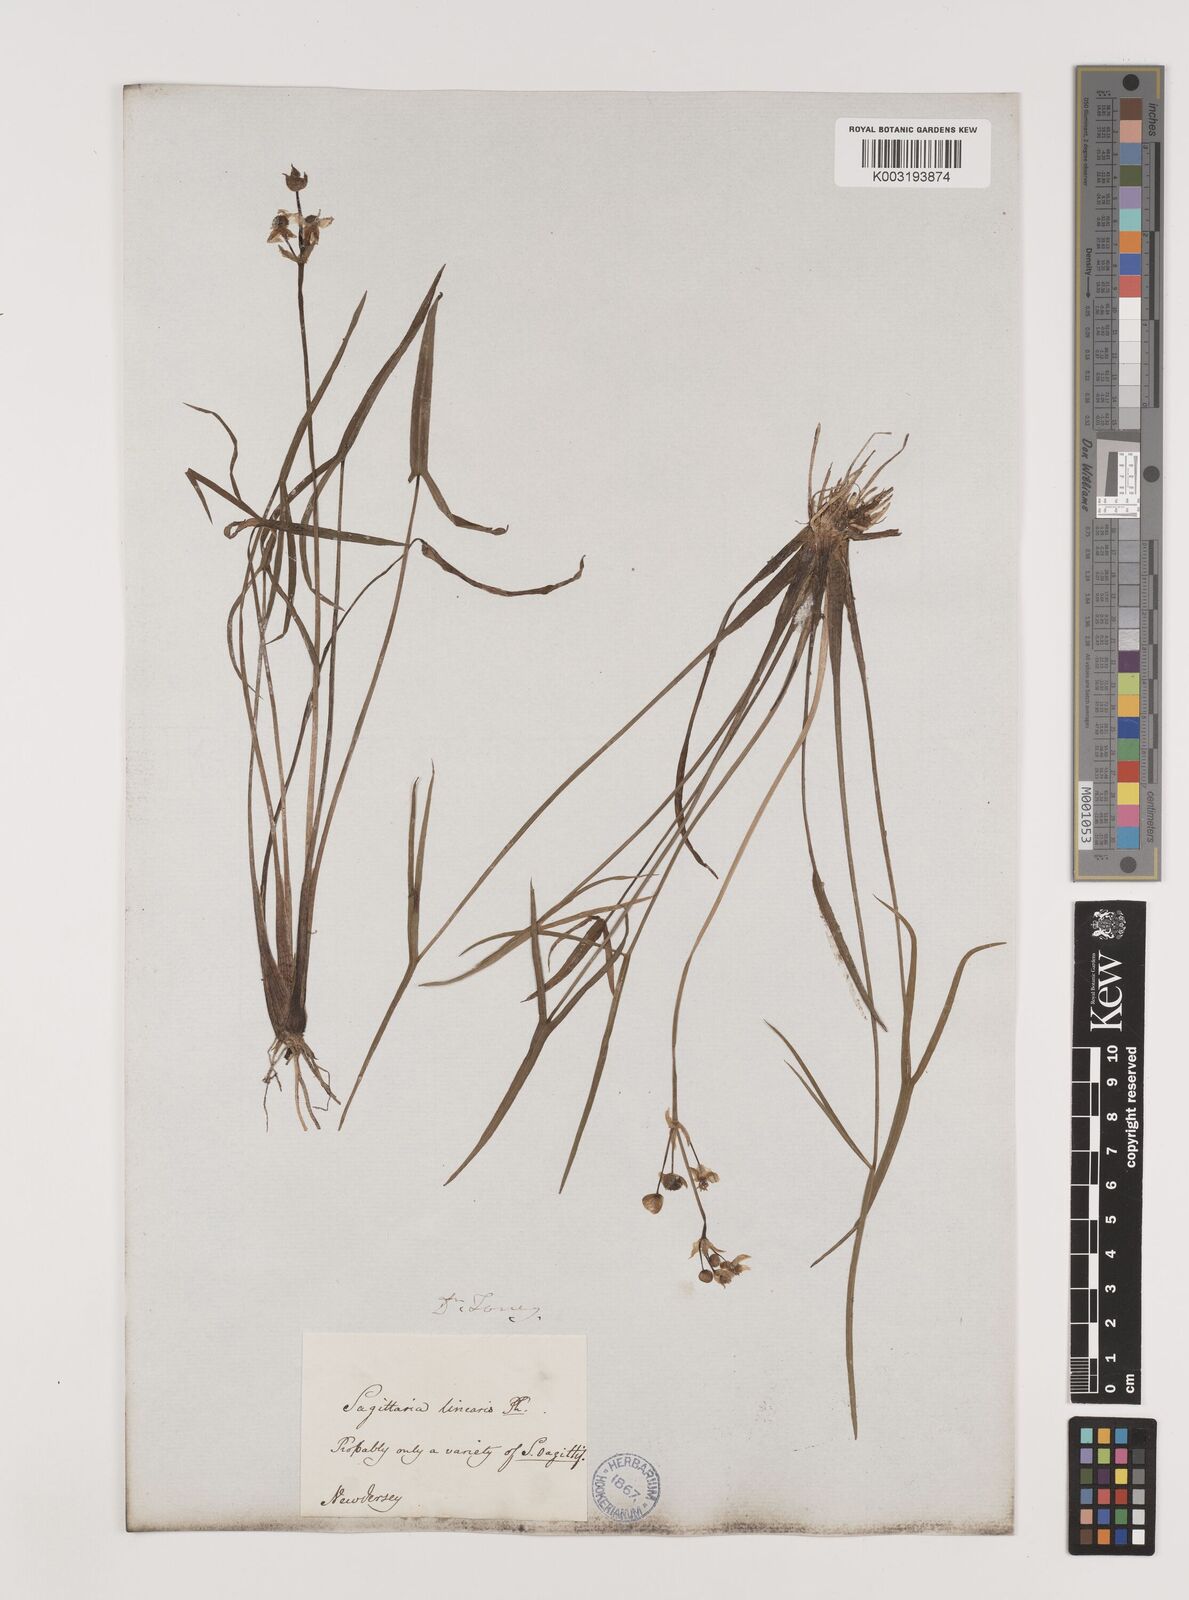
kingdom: Plantae
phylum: Tracheophyta
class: Liliopsida
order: Alismatales
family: Alismataceae
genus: Sagittaria
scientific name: Sagittaria latifolia
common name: Duck-potato
